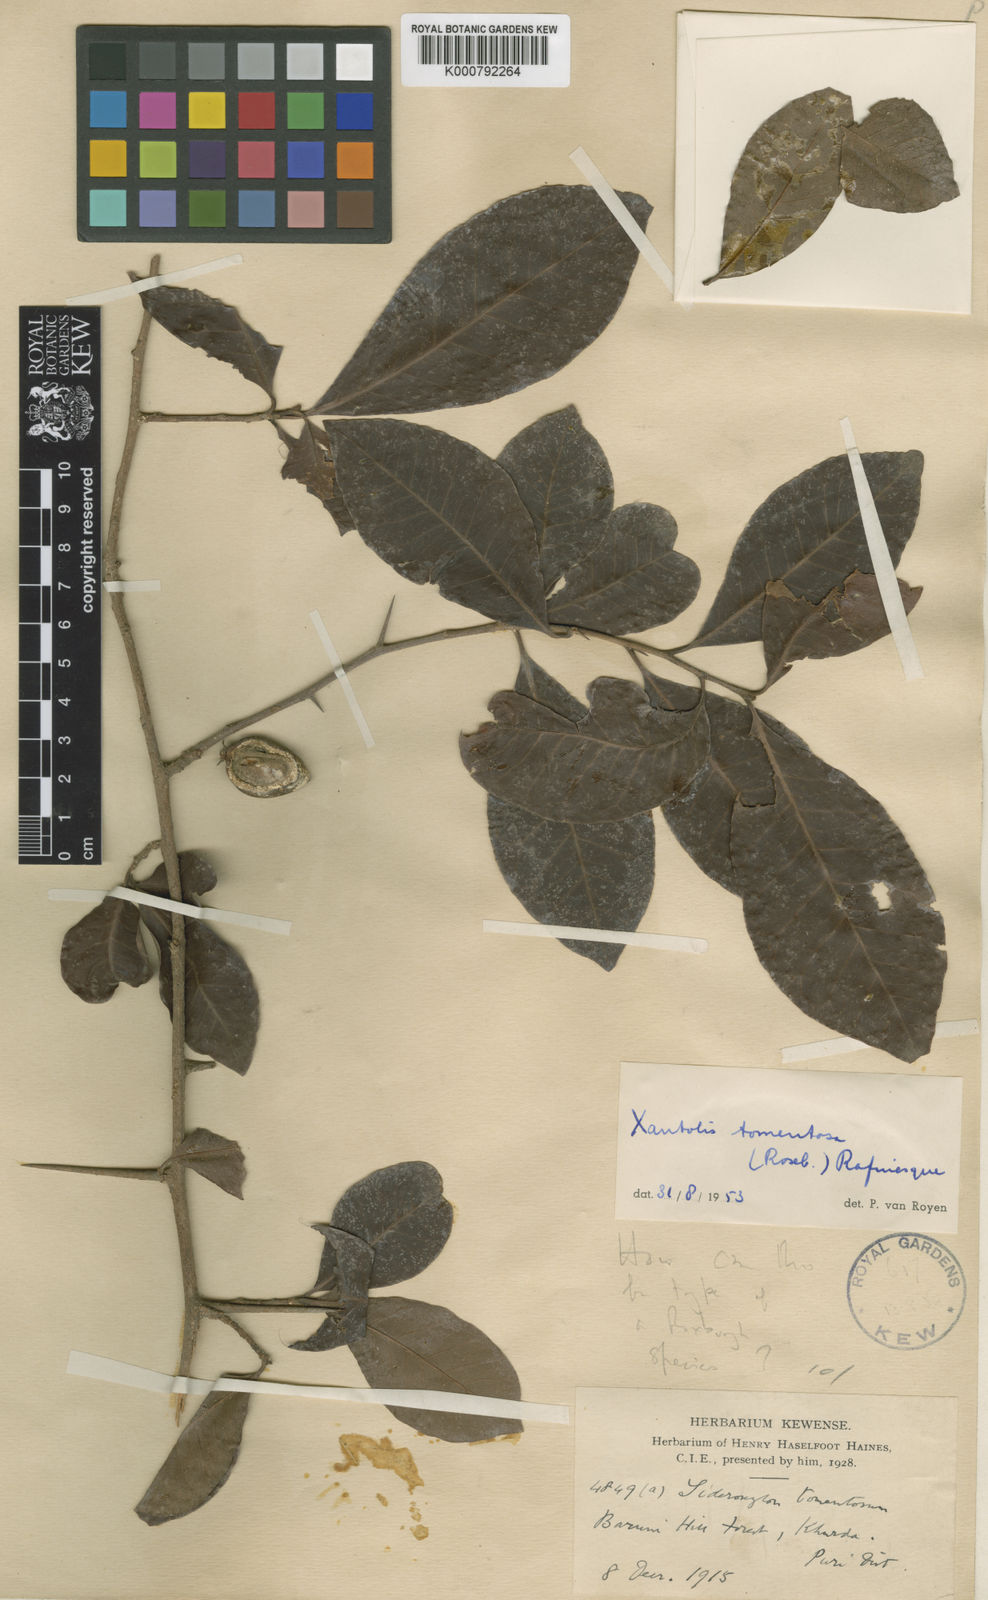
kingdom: Plantae
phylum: Tracheophyta
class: Magnoliopsida
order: Ericales
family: Sapotaceae
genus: Xantolis
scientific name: Xantolis tomentosa
